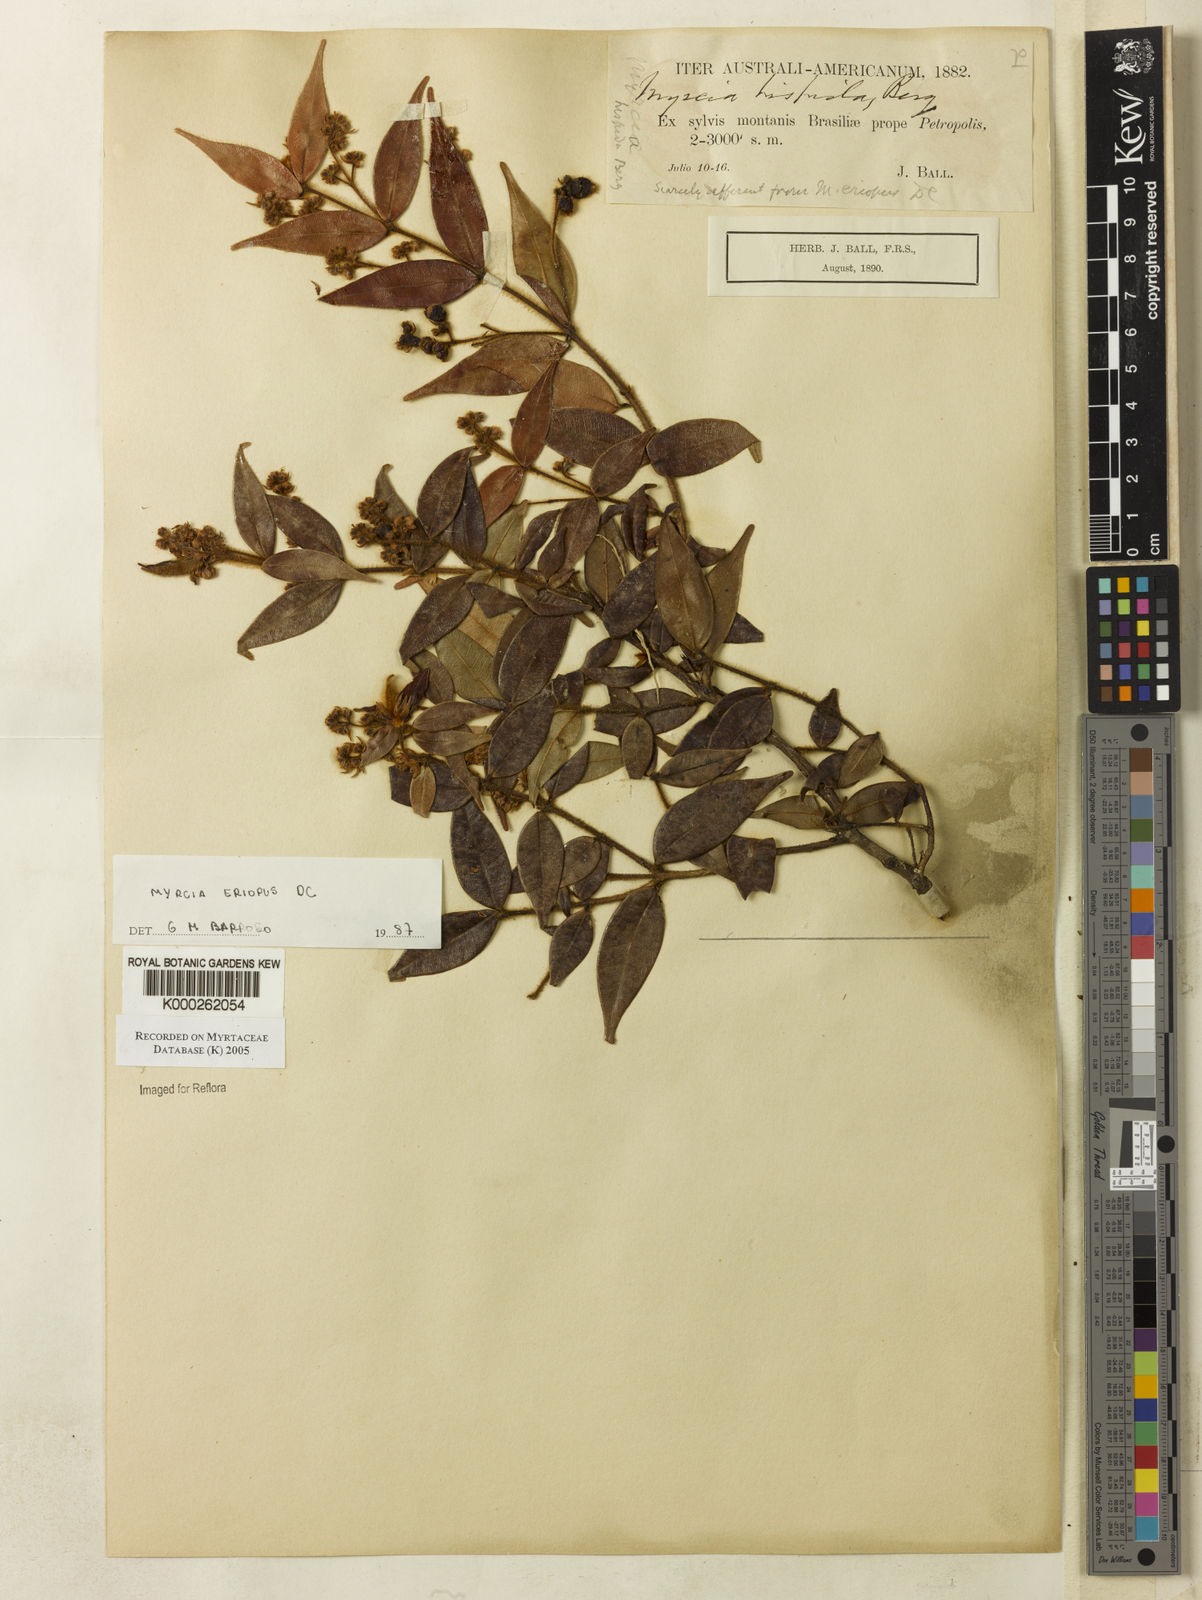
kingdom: Plantae
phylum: Tracheophyta
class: Magnoliopsida
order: Myrtales
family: Myrtaceae
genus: Myrcia
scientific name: Myrcia eriopus
